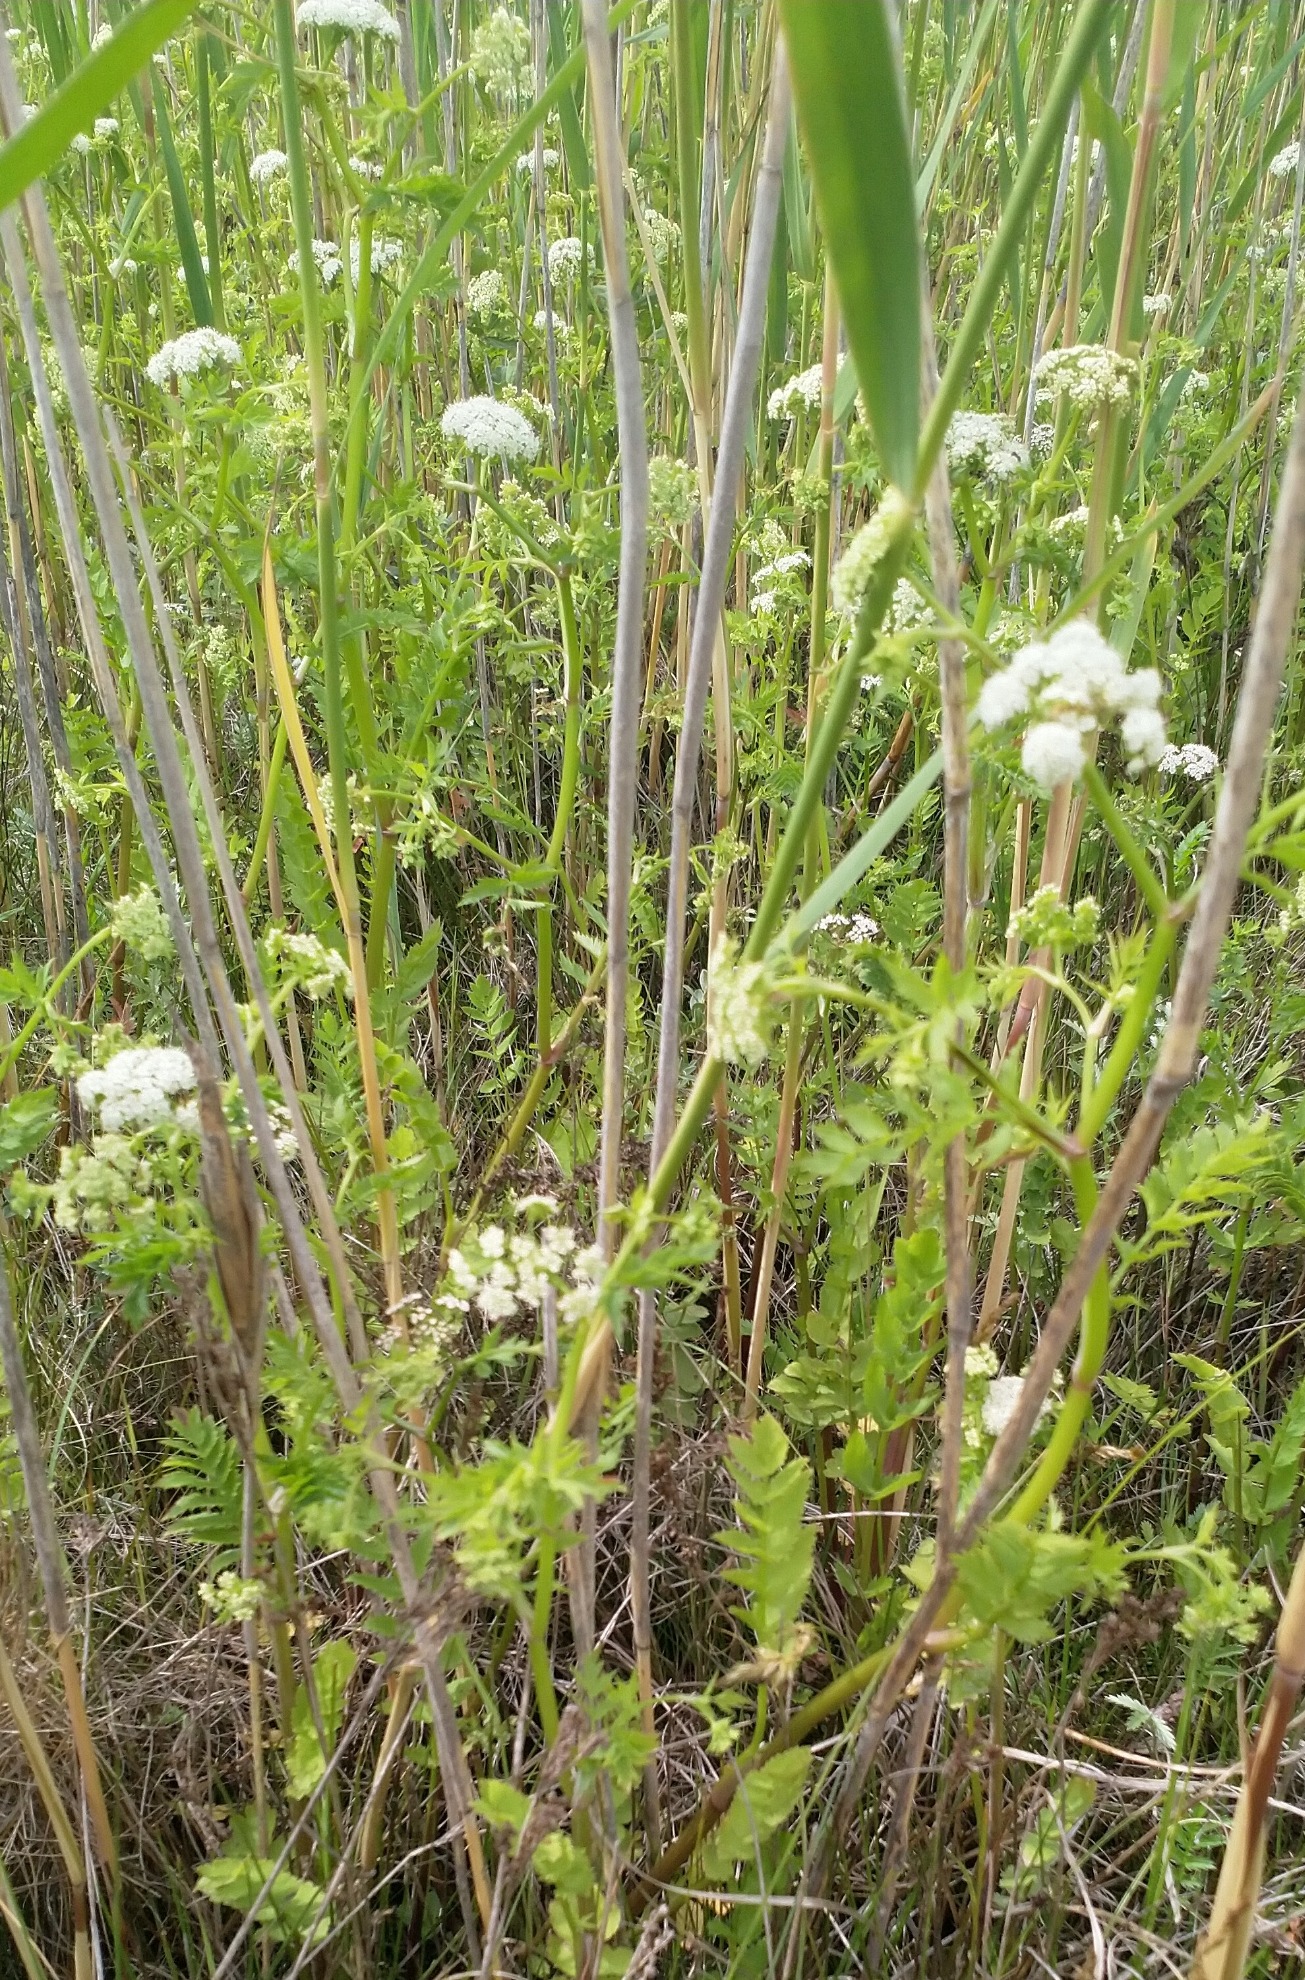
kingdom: Plantae
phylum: Tracheophyta
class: Magnoliopsida
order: Apiales
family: Apiaceae
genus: Berula
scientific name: Berula erecta
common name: Sideskærm
